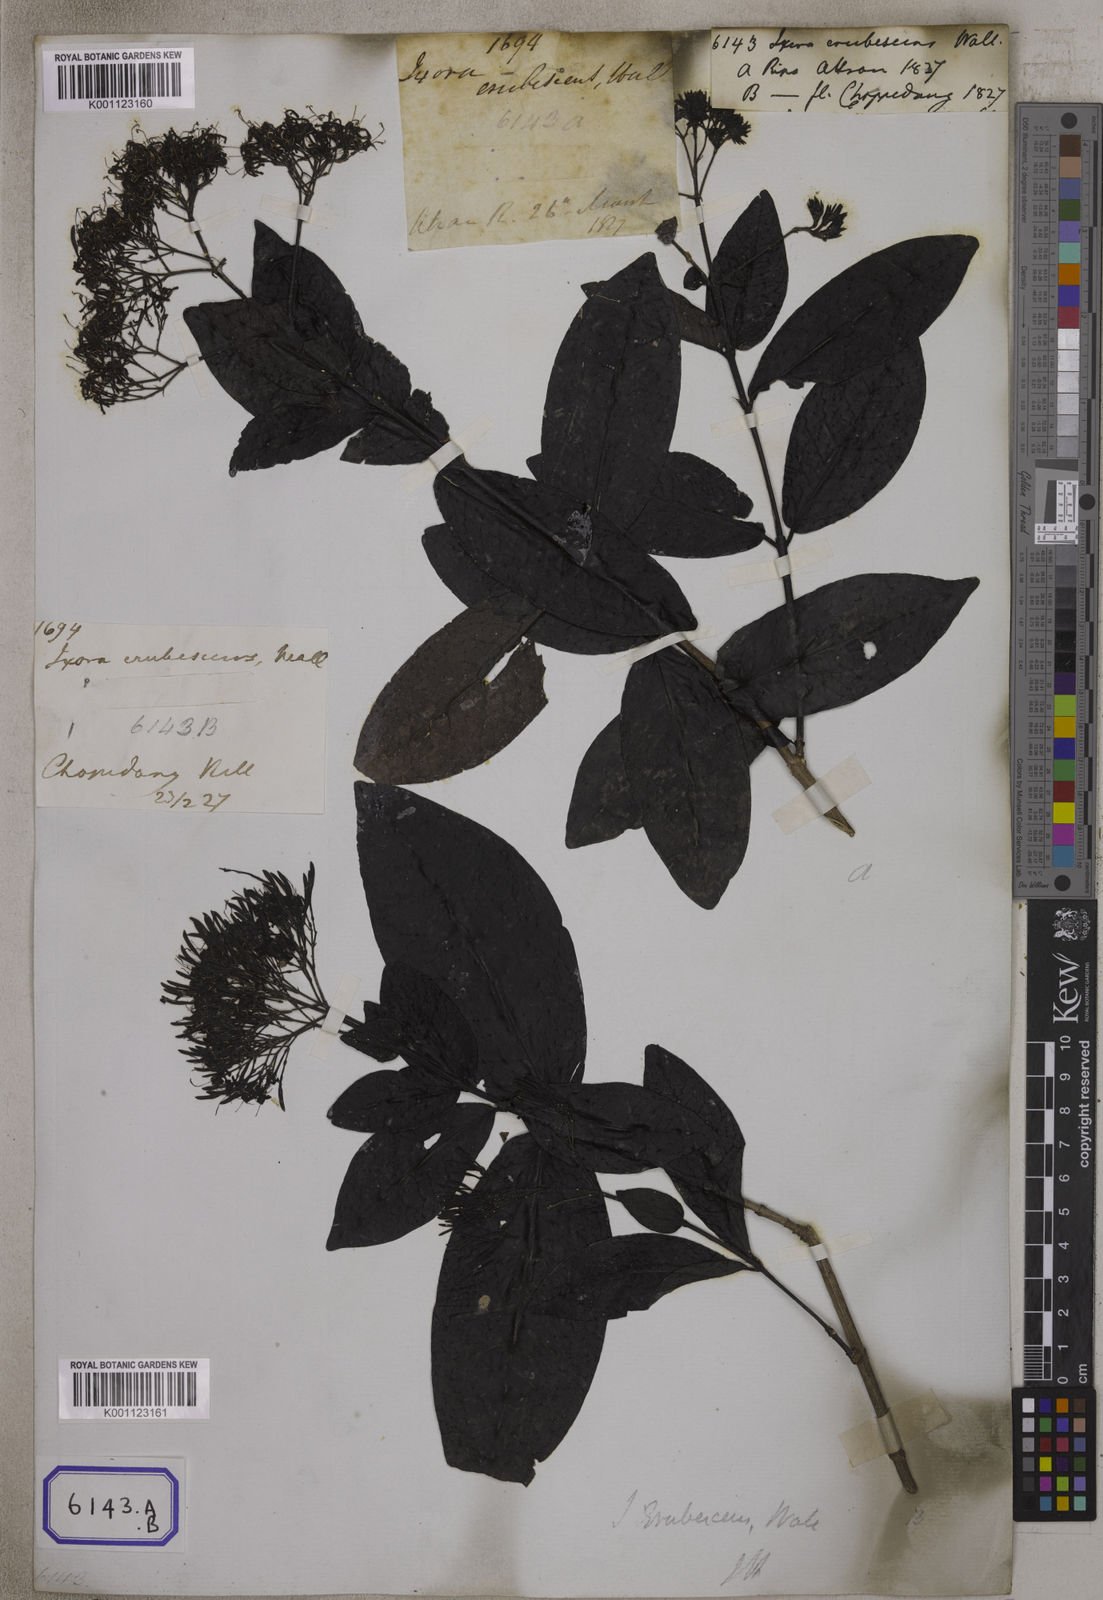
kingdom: Plantae
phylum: Tracheophyta
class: Magnoliopsida
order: Gentianales
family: Rubiaceae
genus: Ixora
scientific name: Ixora
